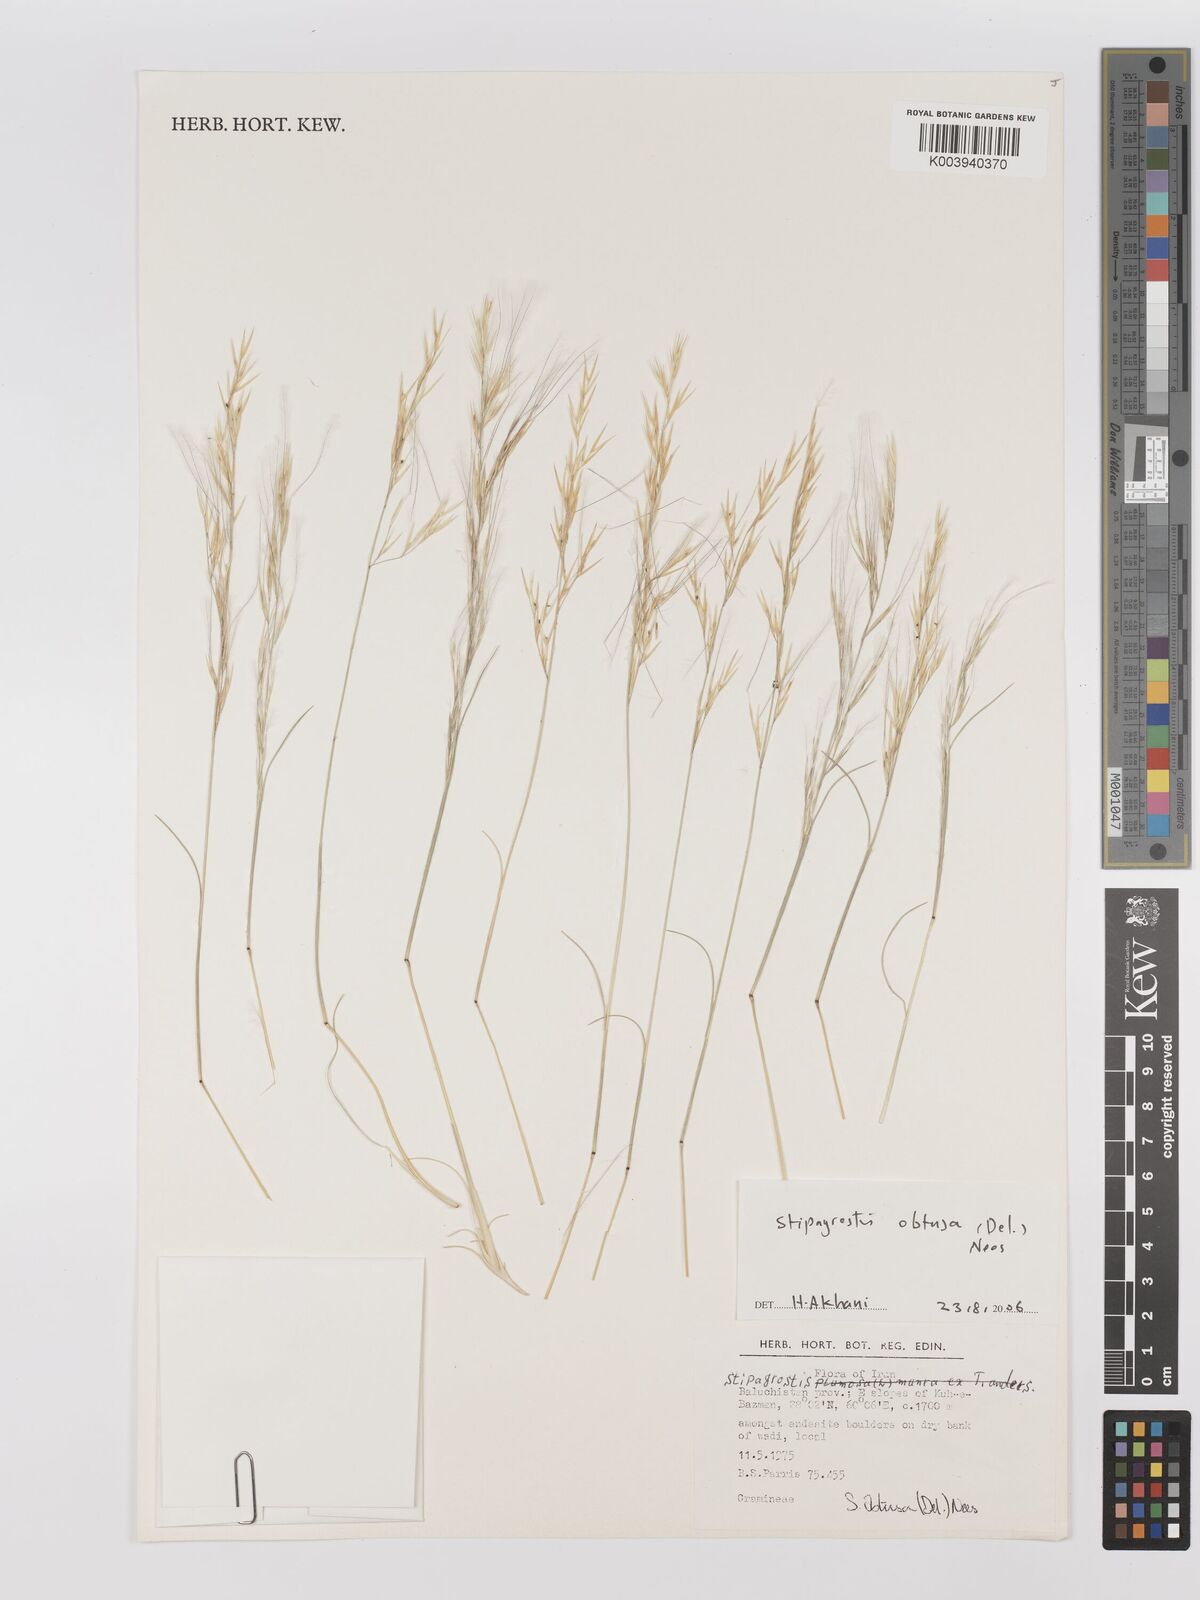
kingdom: Plantae
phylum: Tracheophyta
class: Liliopsida
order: Poales
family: Poaceae
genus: Stipagrostis
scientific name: Stipagrostis obtusa
